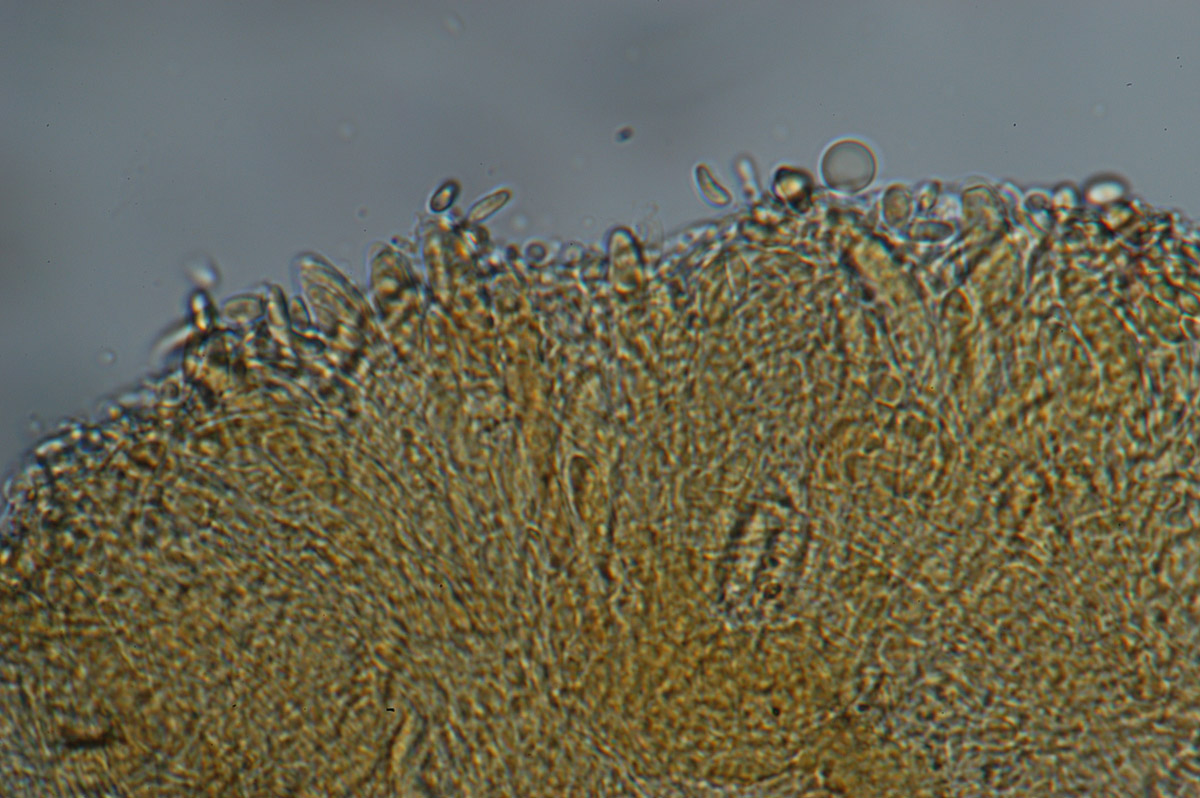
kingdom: Fungi
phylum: Ascomycota
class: Leotiomycetes
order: Helotiales
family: Calloriaceae
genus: Laetinaevia
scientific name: Laetinaevia epithallina
